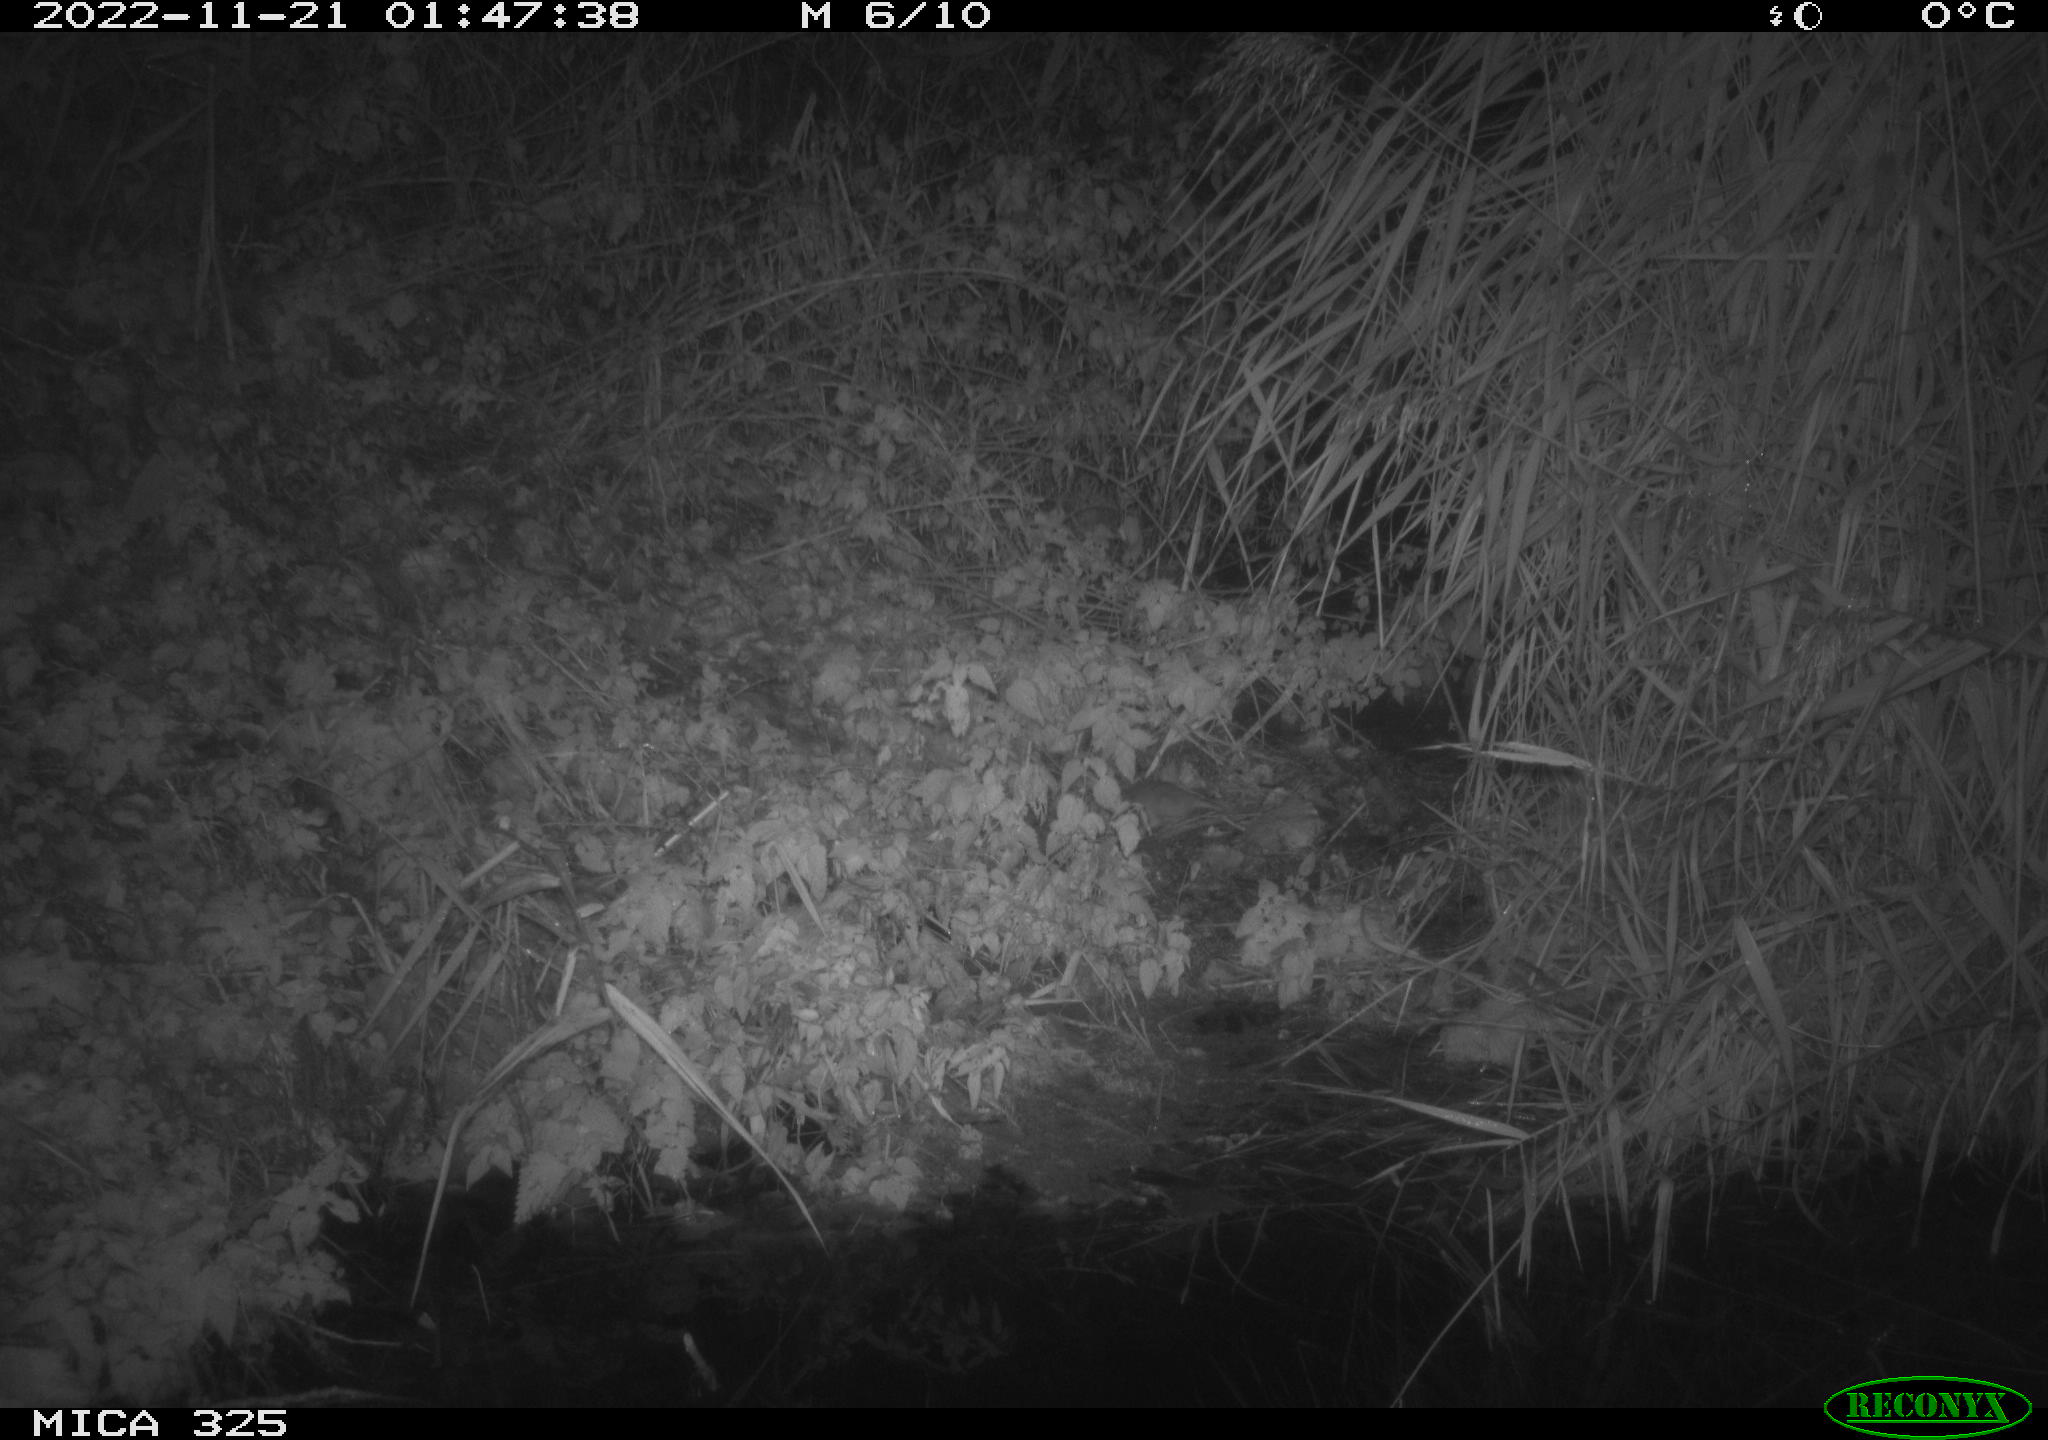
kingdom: Animalia
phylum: Chordata
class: Mammalia
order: Rodentia
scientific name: Rodentia
